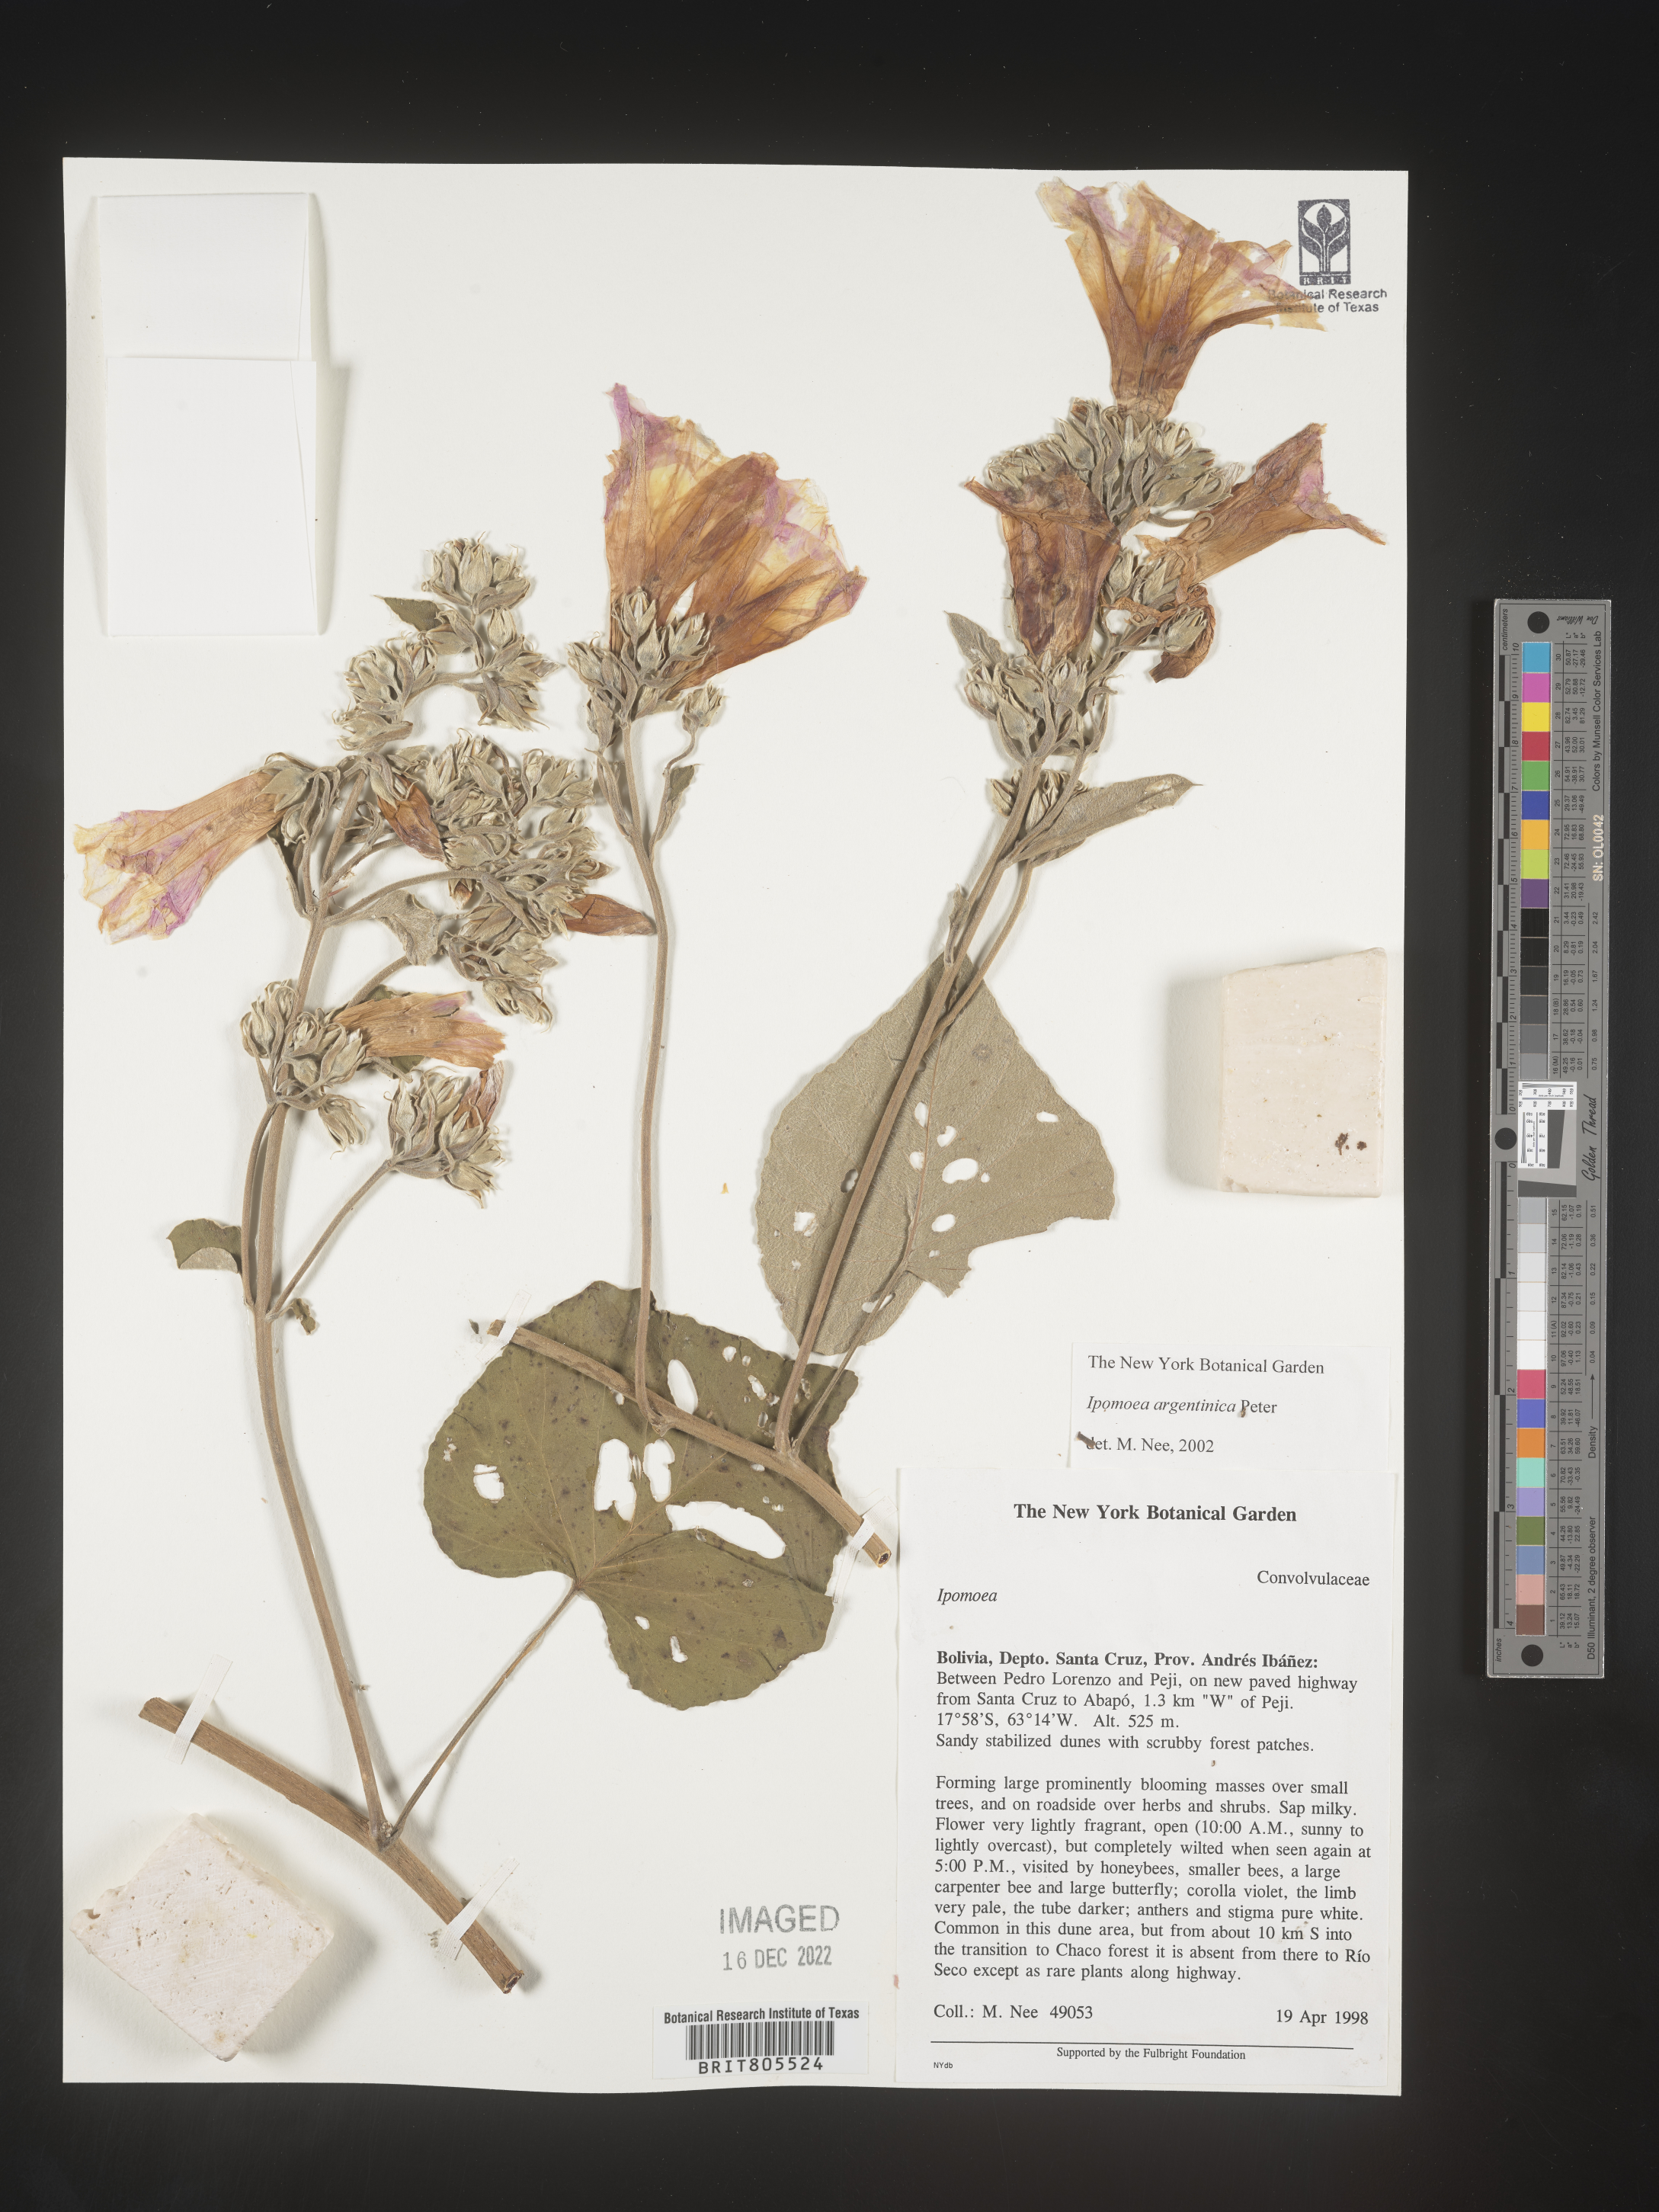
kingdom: Plantae
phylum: Tracheophyta
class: Magnoliopsida
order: Solanales
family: Convolvulaceae
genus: Ipomoea
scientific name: Ipomoea
